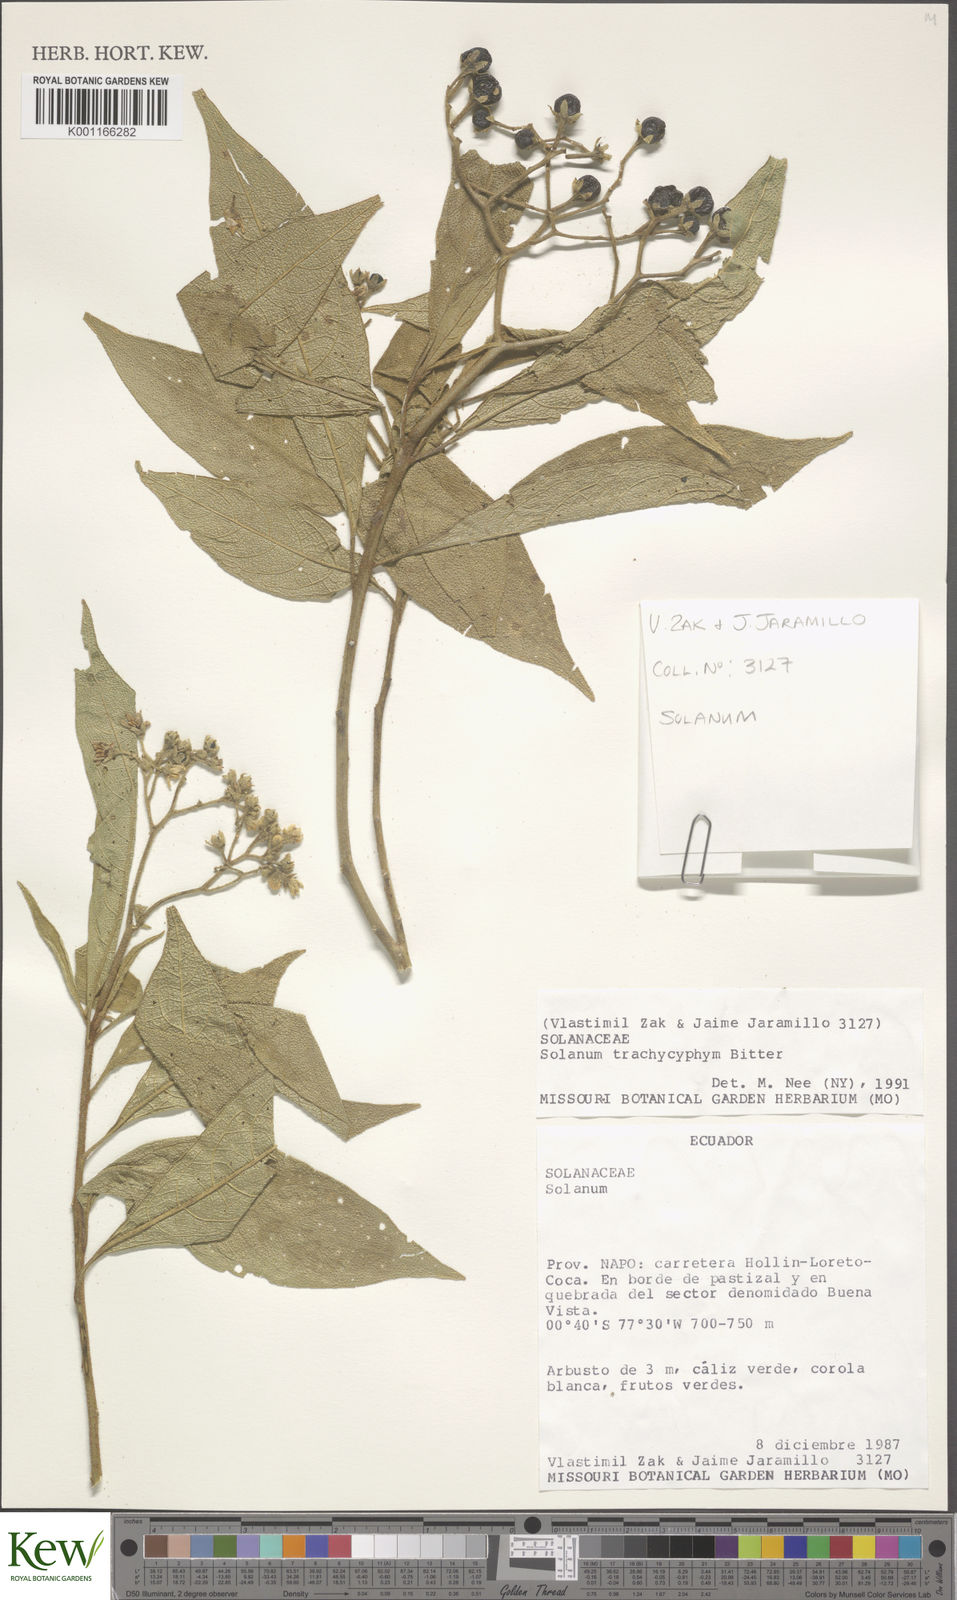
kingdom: Plantae
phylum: Tracheophyta
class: Magnoliopsida
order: Solanales
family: Solanaceae
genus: Solanum
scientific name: Solanum trachycyphum
